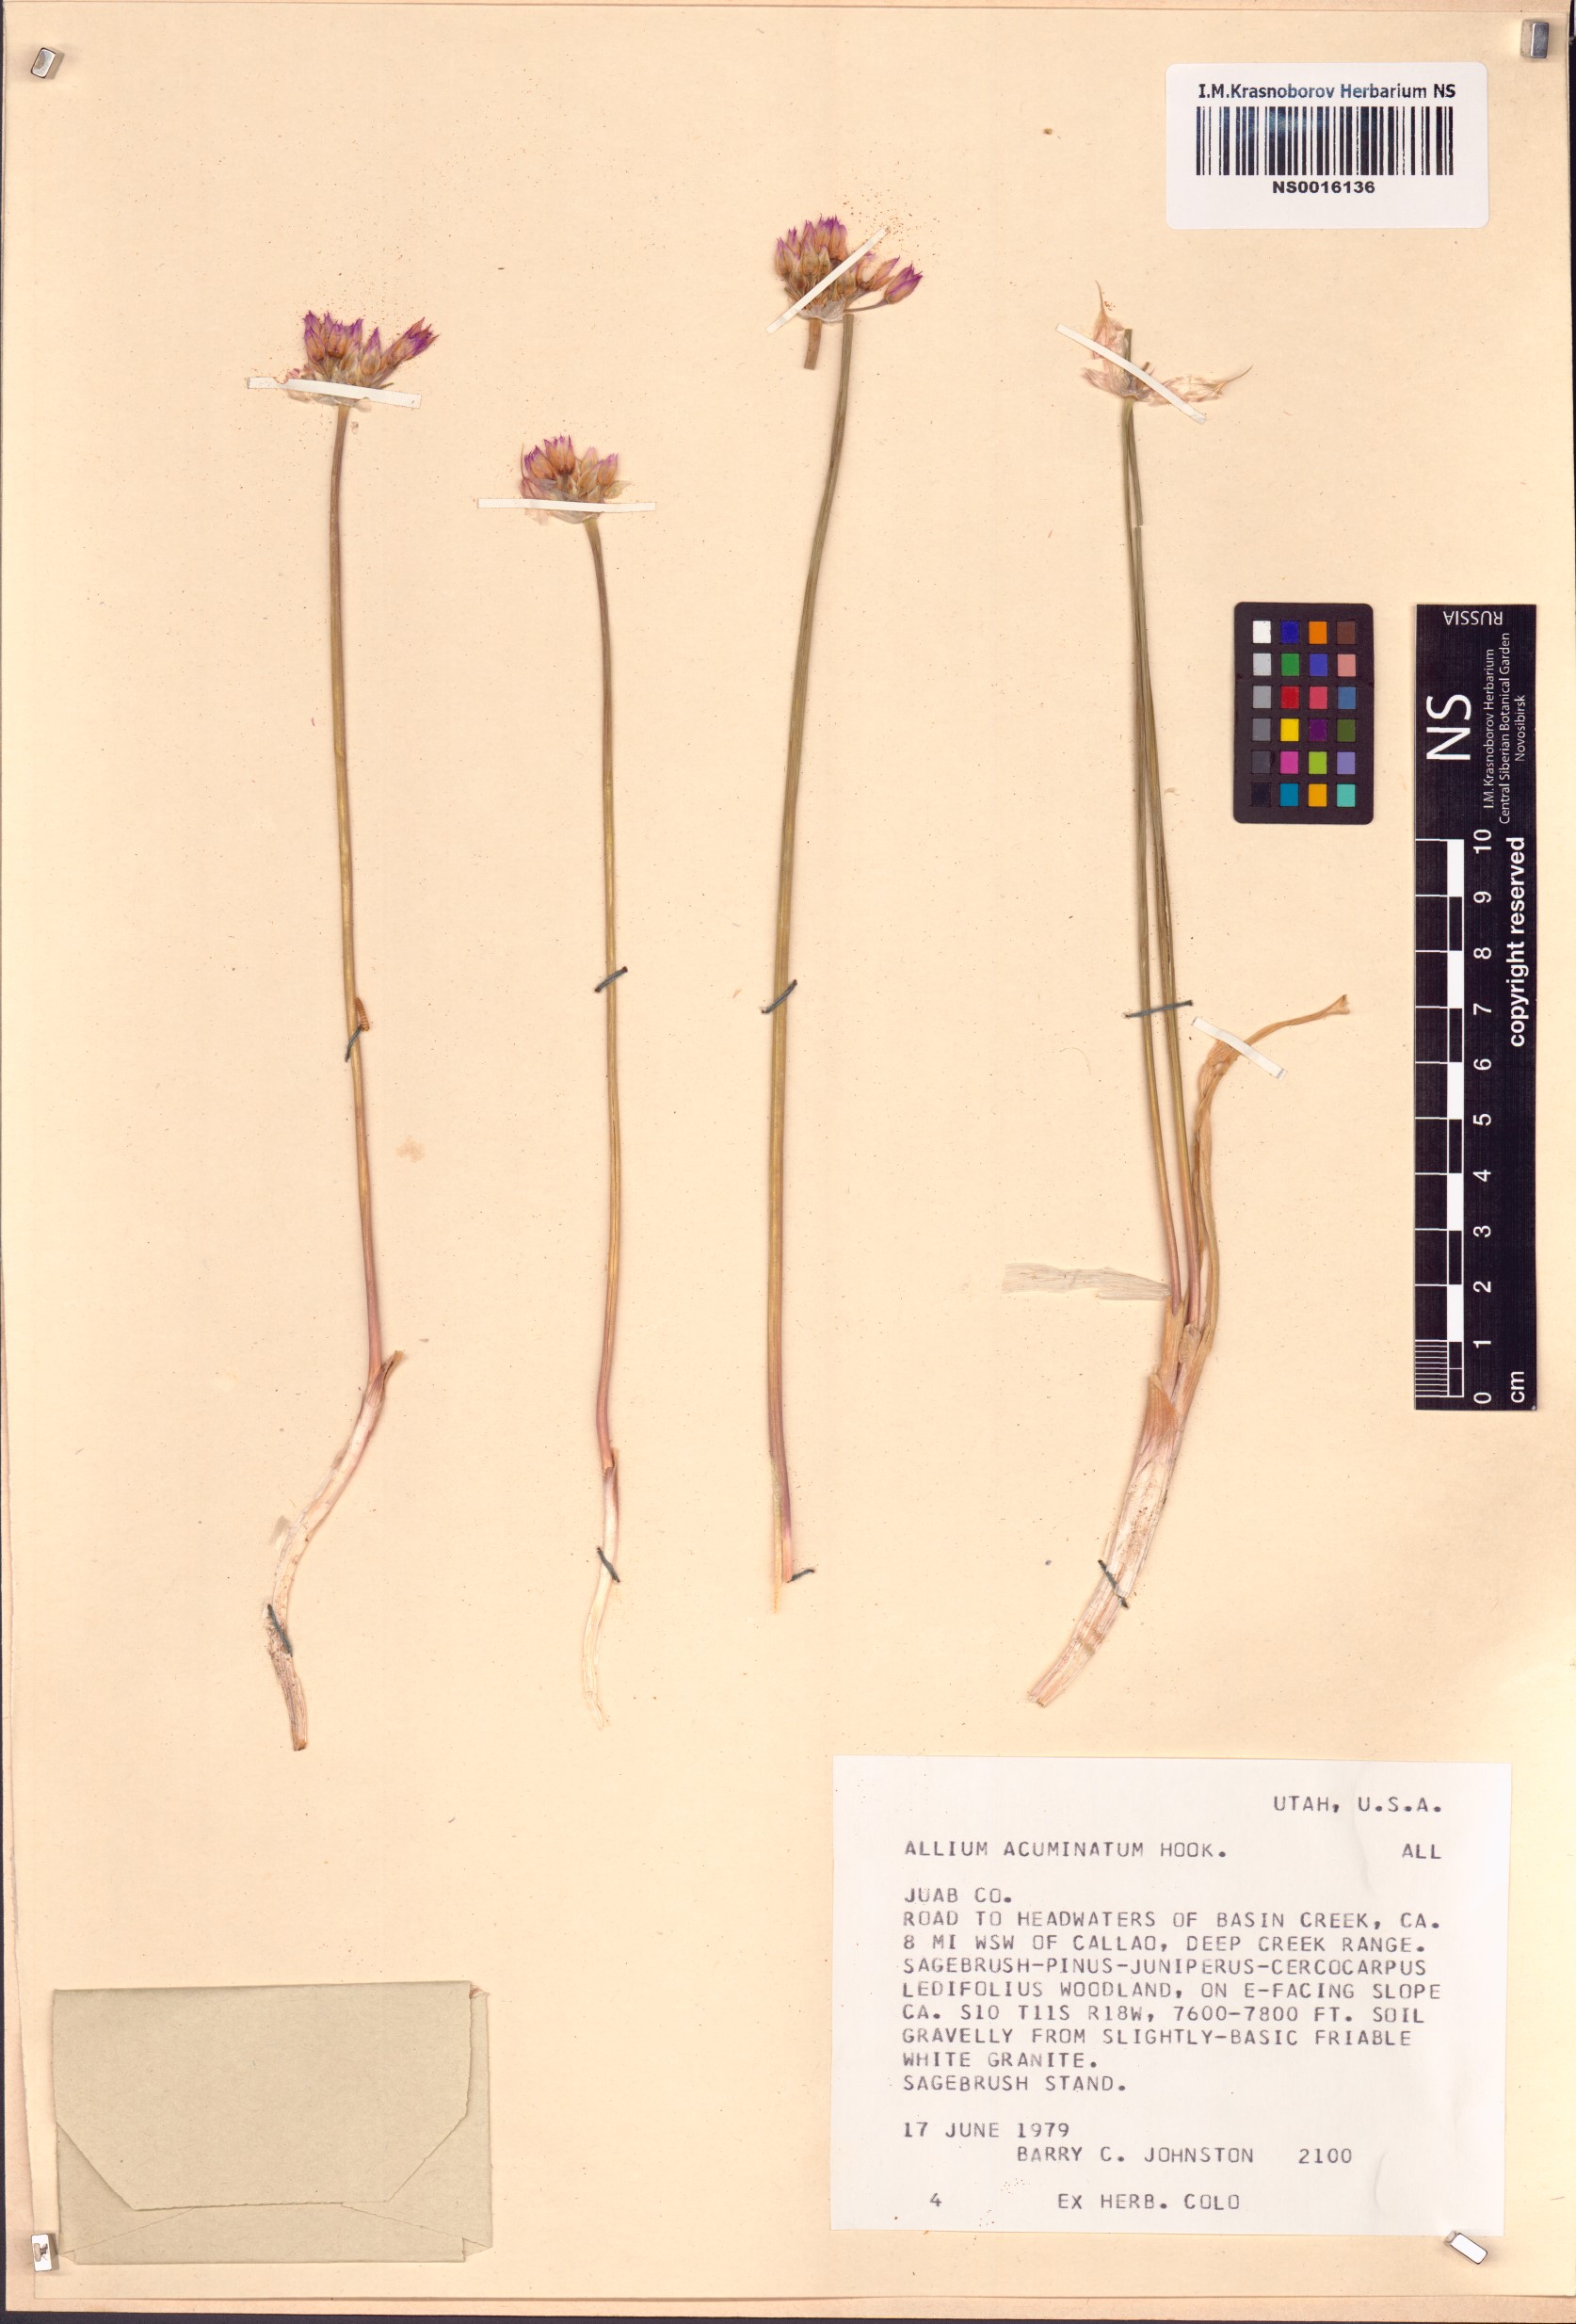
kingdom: Plantae
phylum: Tracheophyta
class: Liliopsida
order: Asparagales
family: Amaryllidaceae
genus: Allium
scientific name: Allium acuminatum
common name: Hooker's onion
